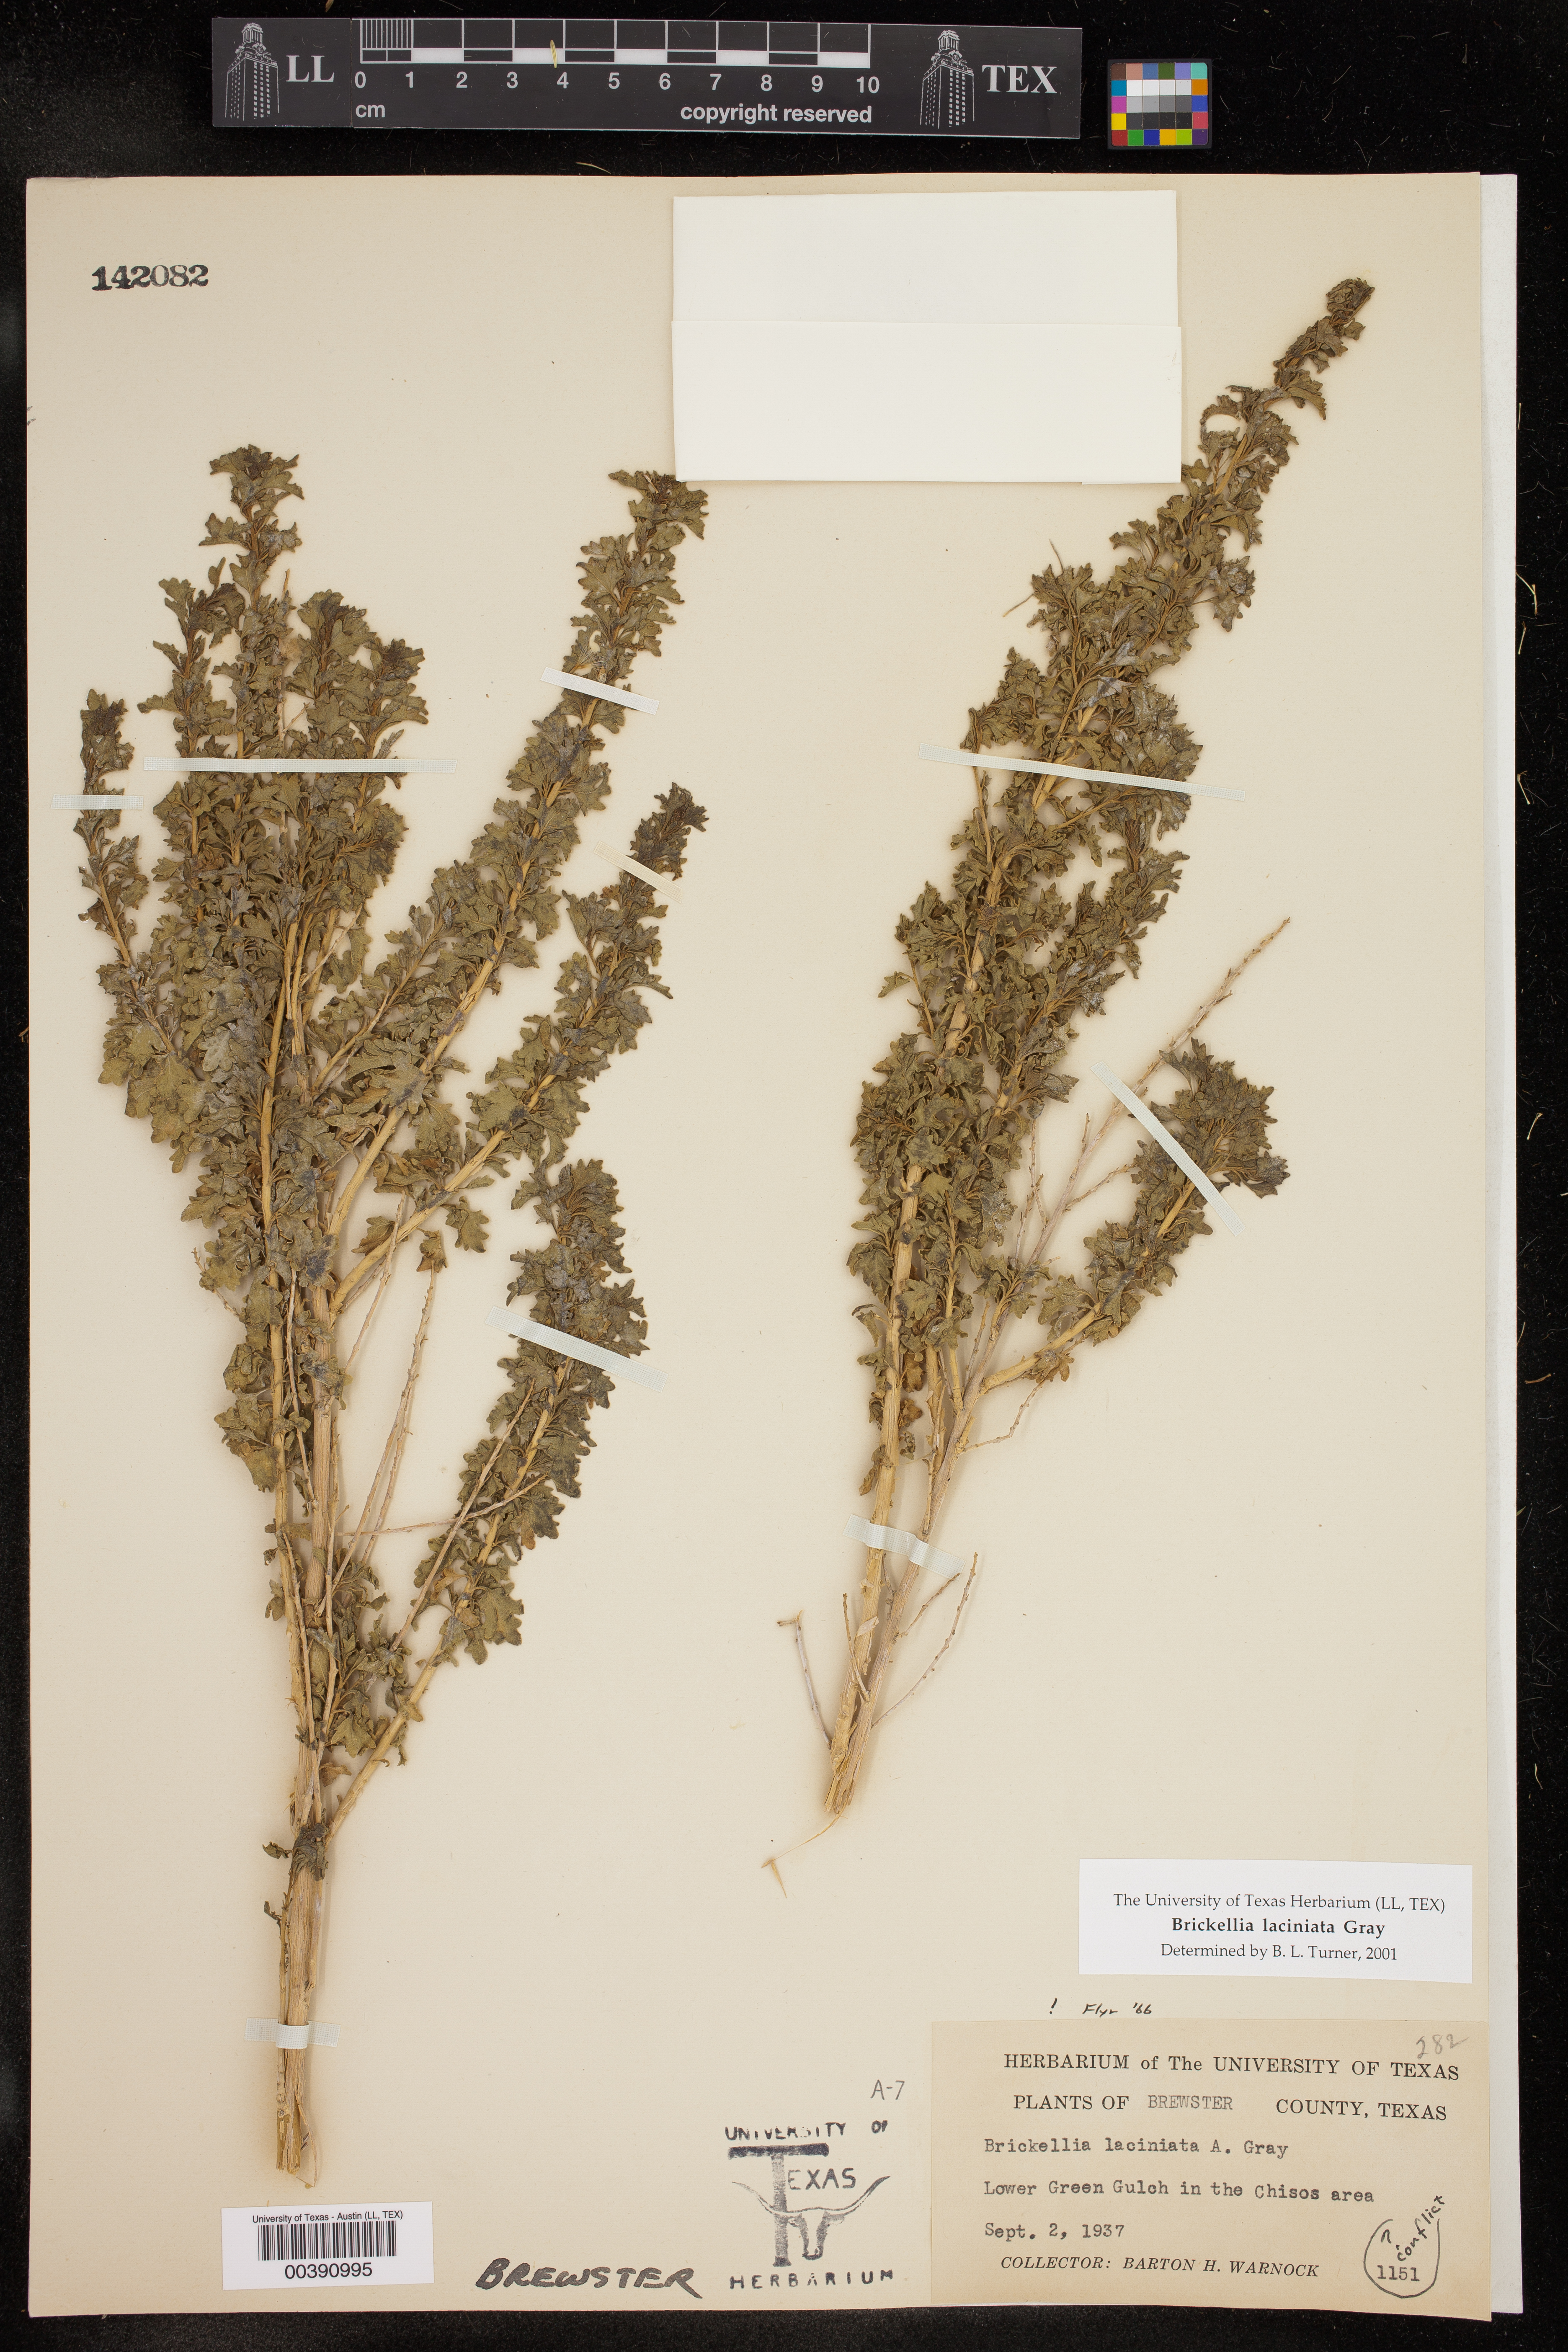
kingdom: Plantae
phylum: Tracheophyta
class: Magnoliopsida
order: Asterales
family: Asteraceae
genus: Brickellia
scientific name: Brickellia laciniata
